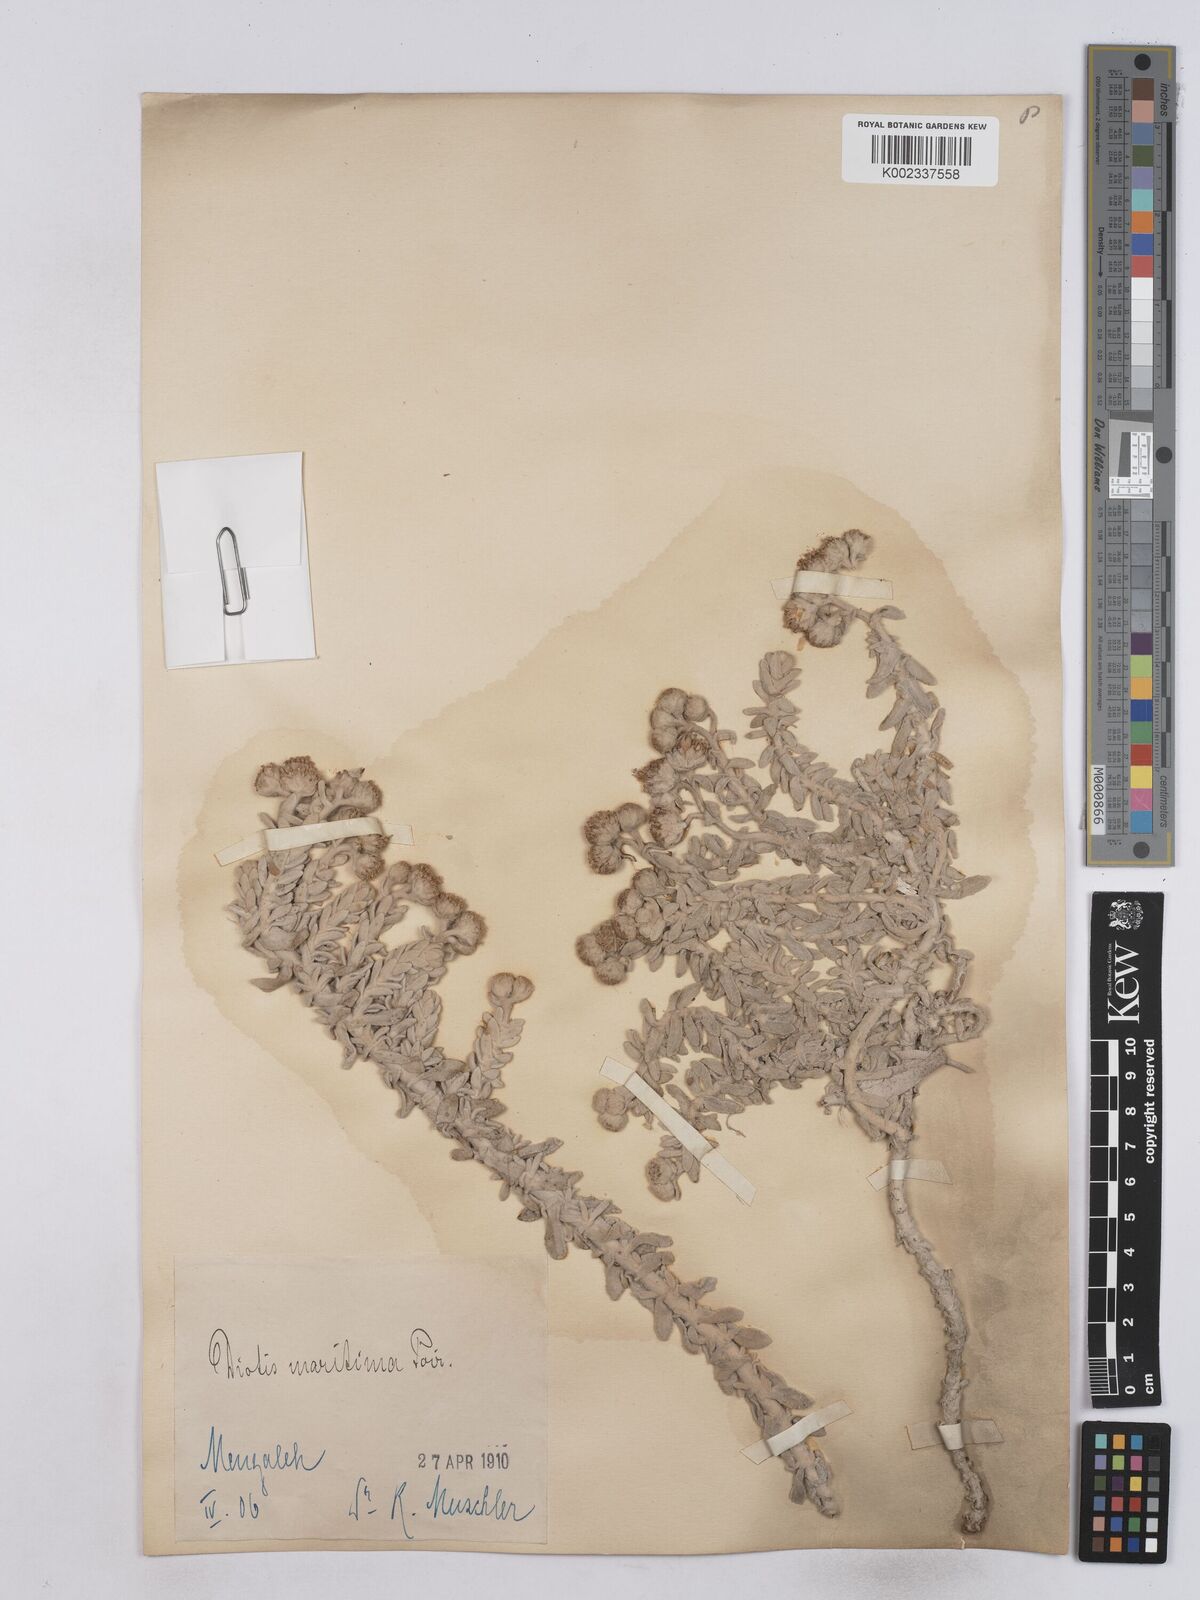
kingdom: Plantae
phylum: Tracheophyta
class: Magnoliopsida
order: Asterales
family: Asteraceae
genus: Achillea
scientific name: Achillea maritima
